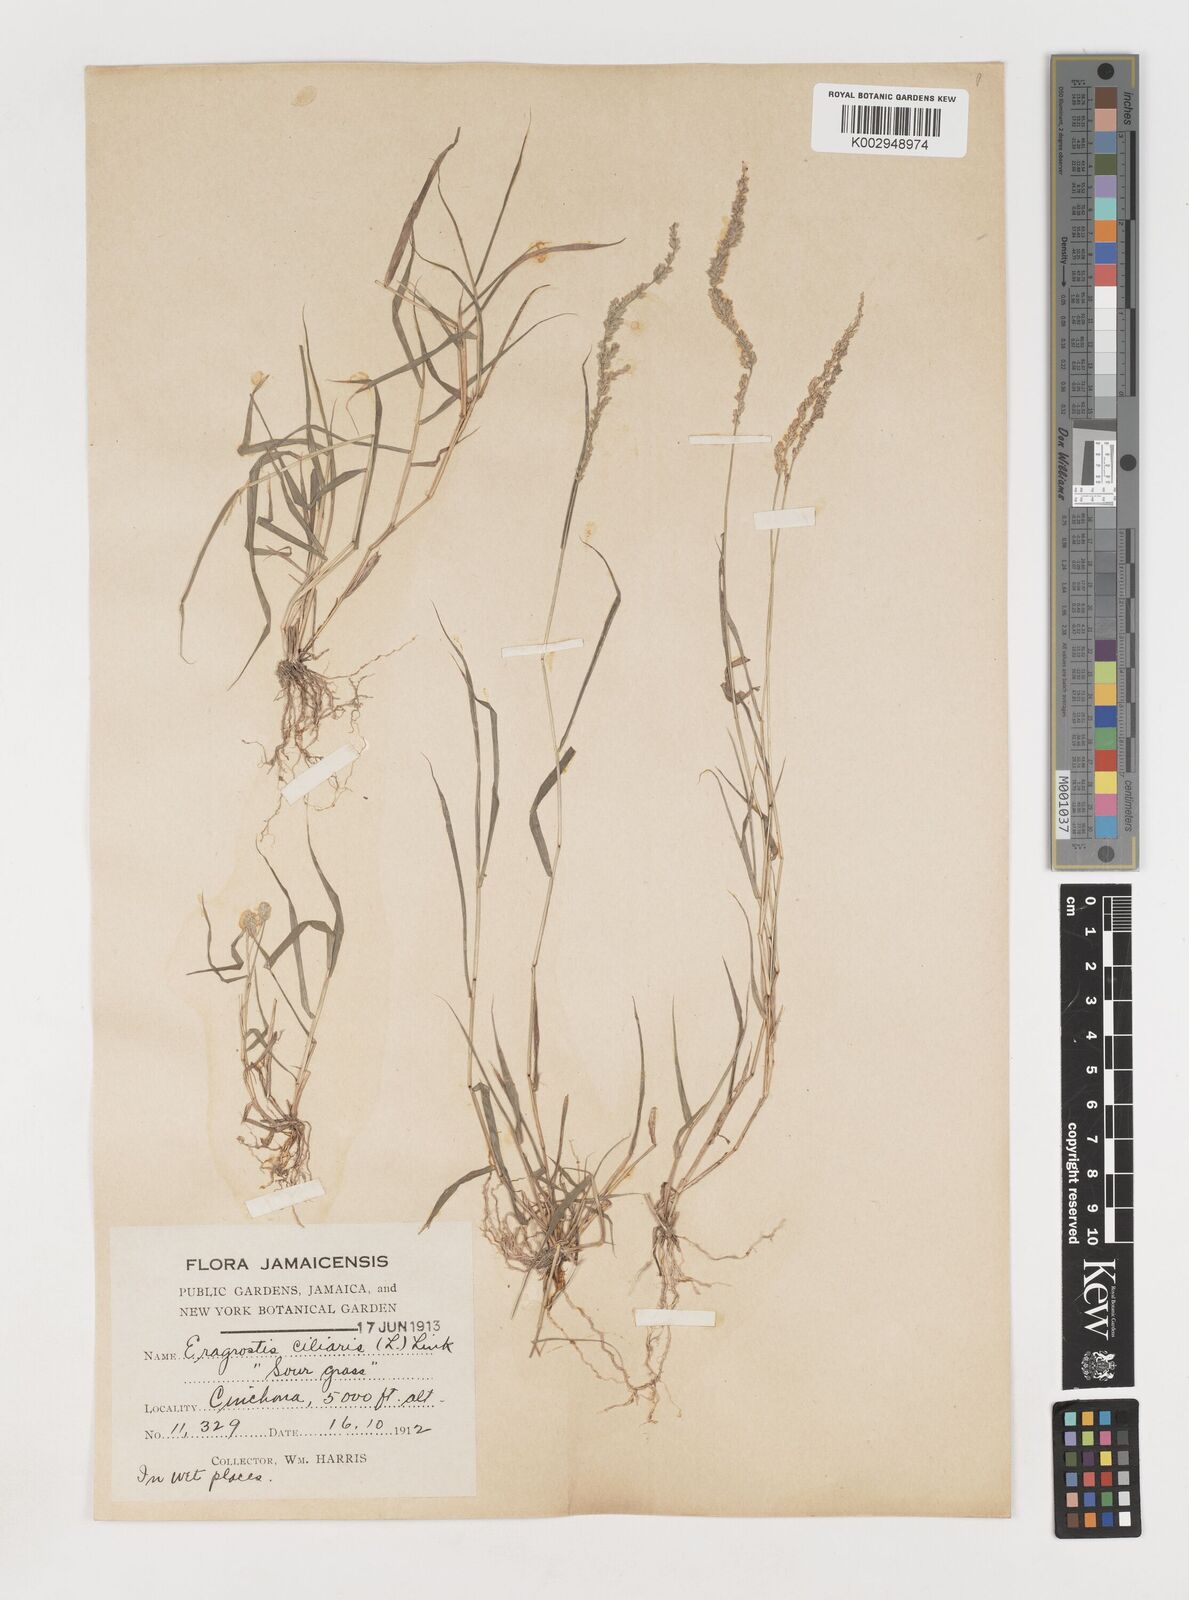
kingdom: Plantae
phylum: Tracheophyta
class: Liliopsida
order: Poales
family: Poaceae
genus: Eragrostis
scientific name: Eragrostis ciliaris
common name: Gophertail lovegrass
